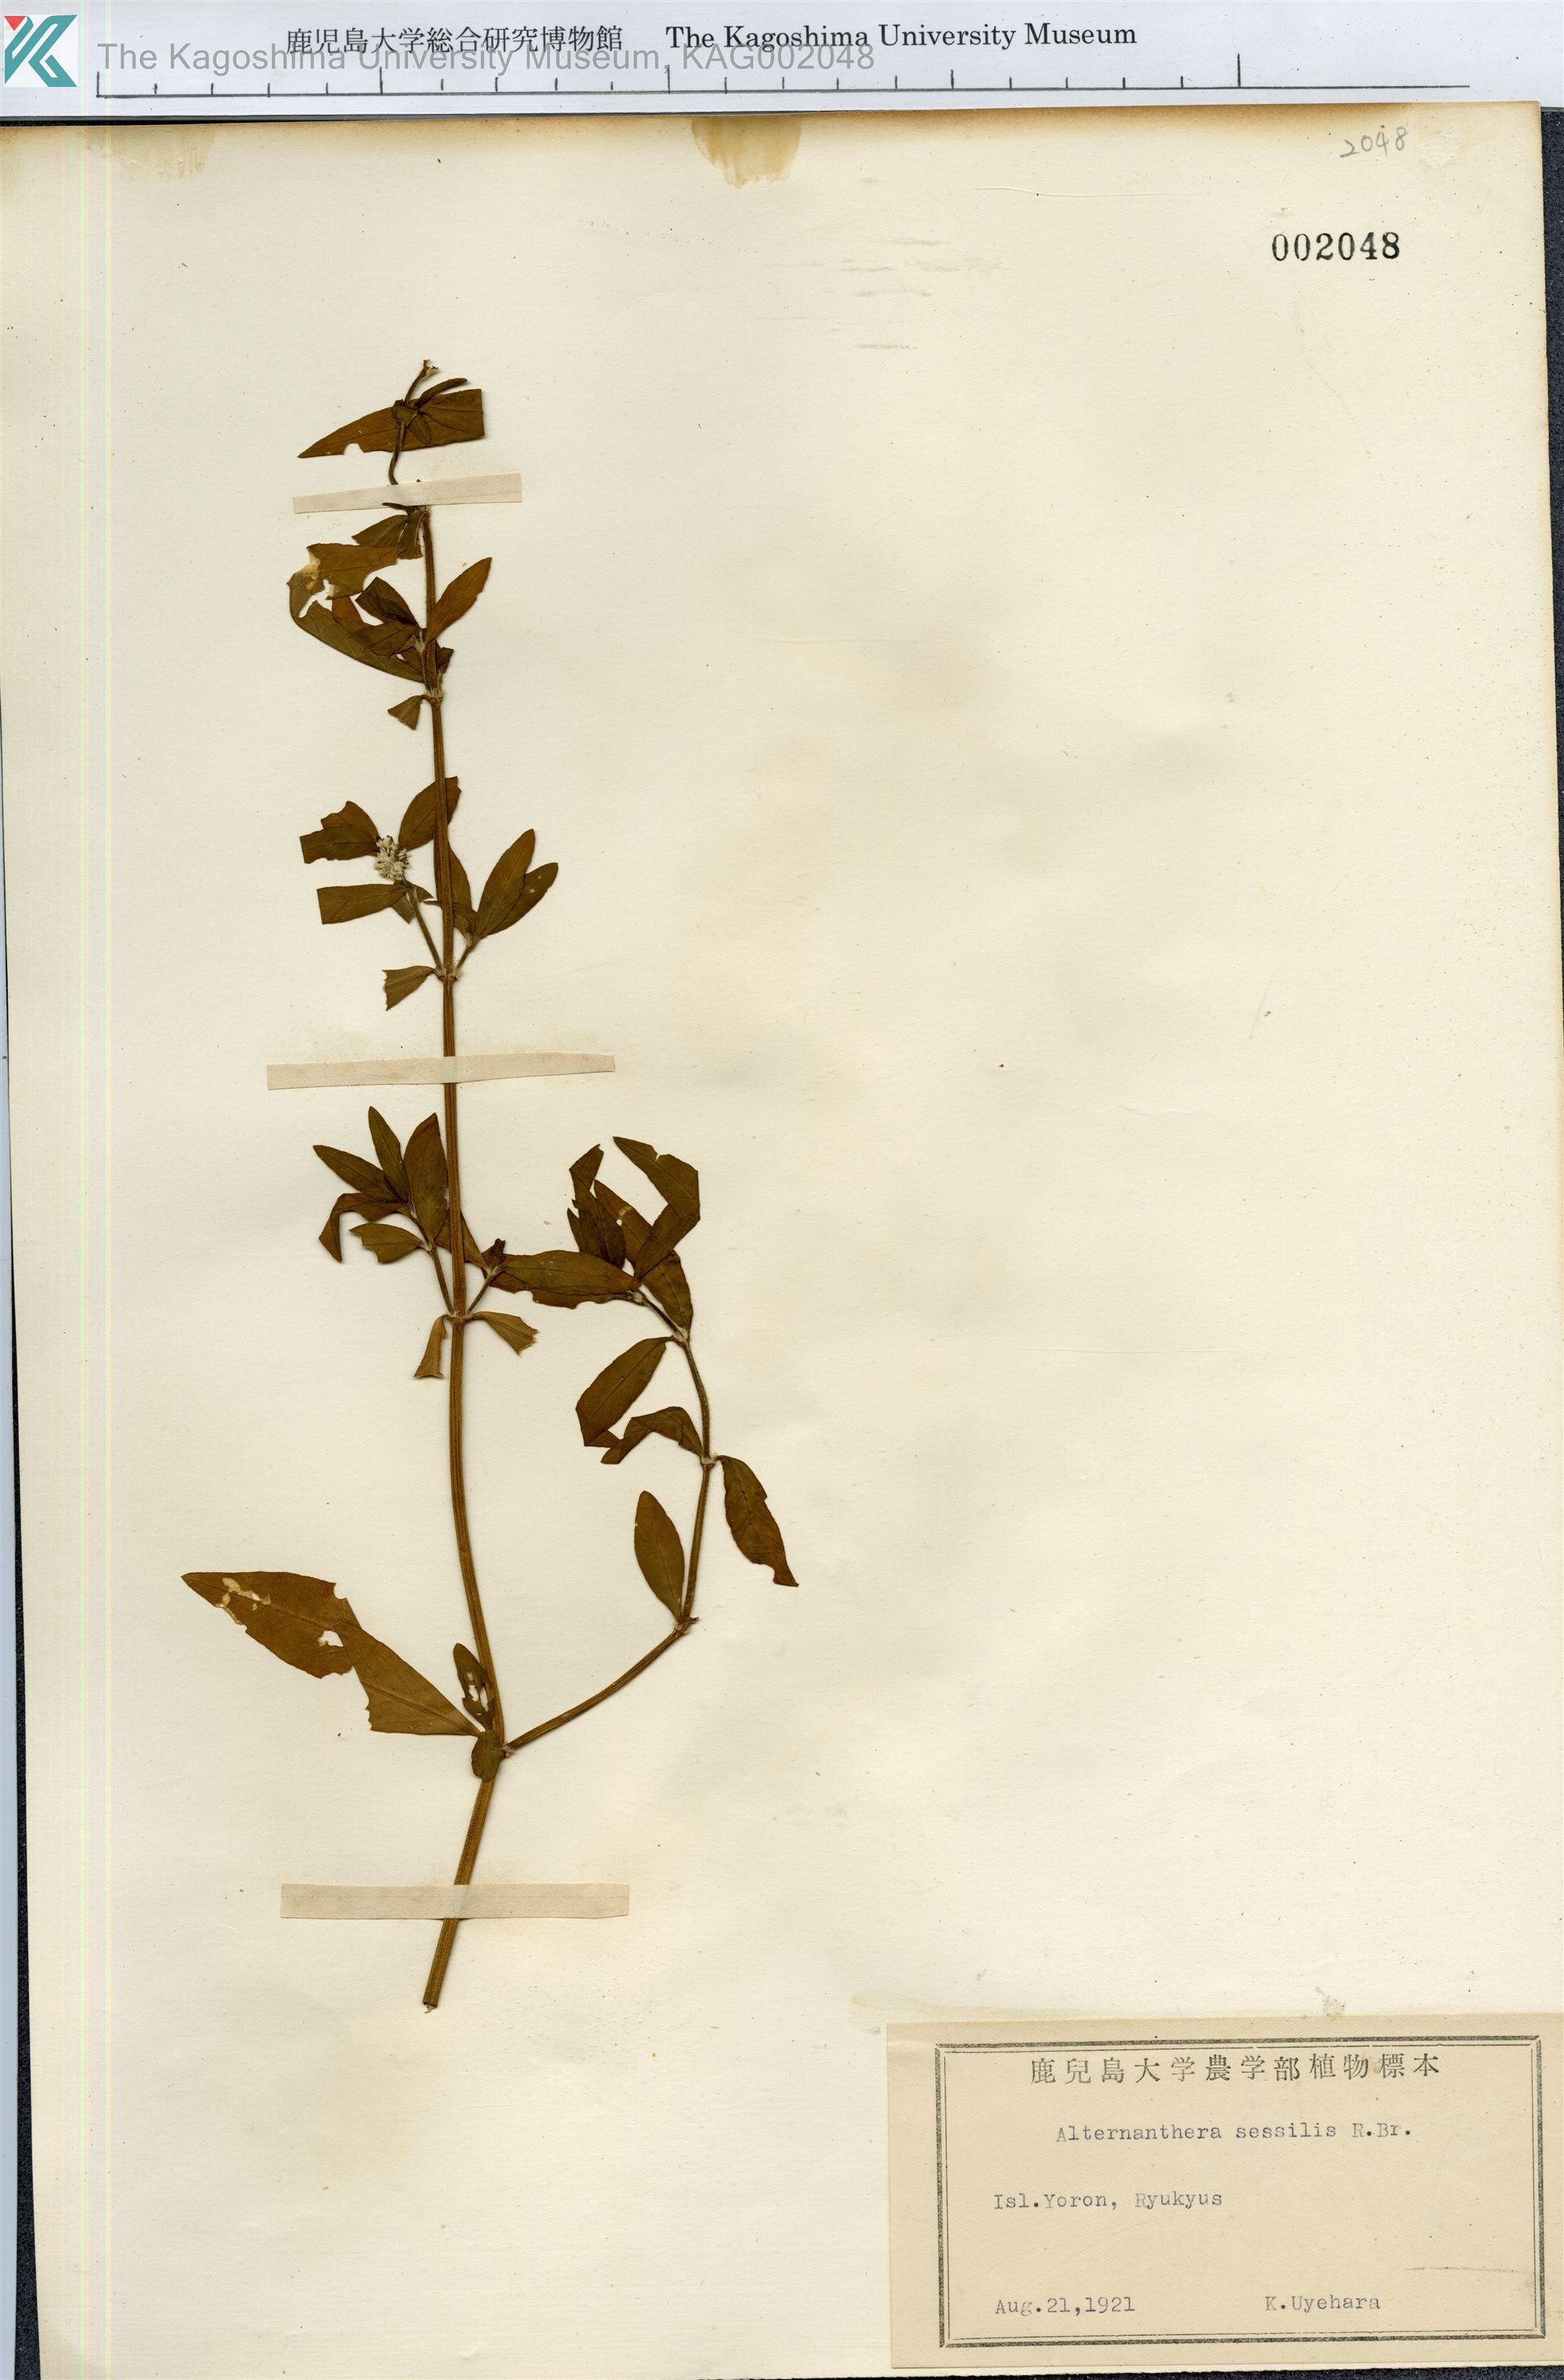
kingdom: Plantae
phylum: Tracheophyta
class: Magnoliopsida
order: Caryophyllales
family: Amaranthaceae
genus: Alternanthera
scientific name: Alternanthera sessilis
